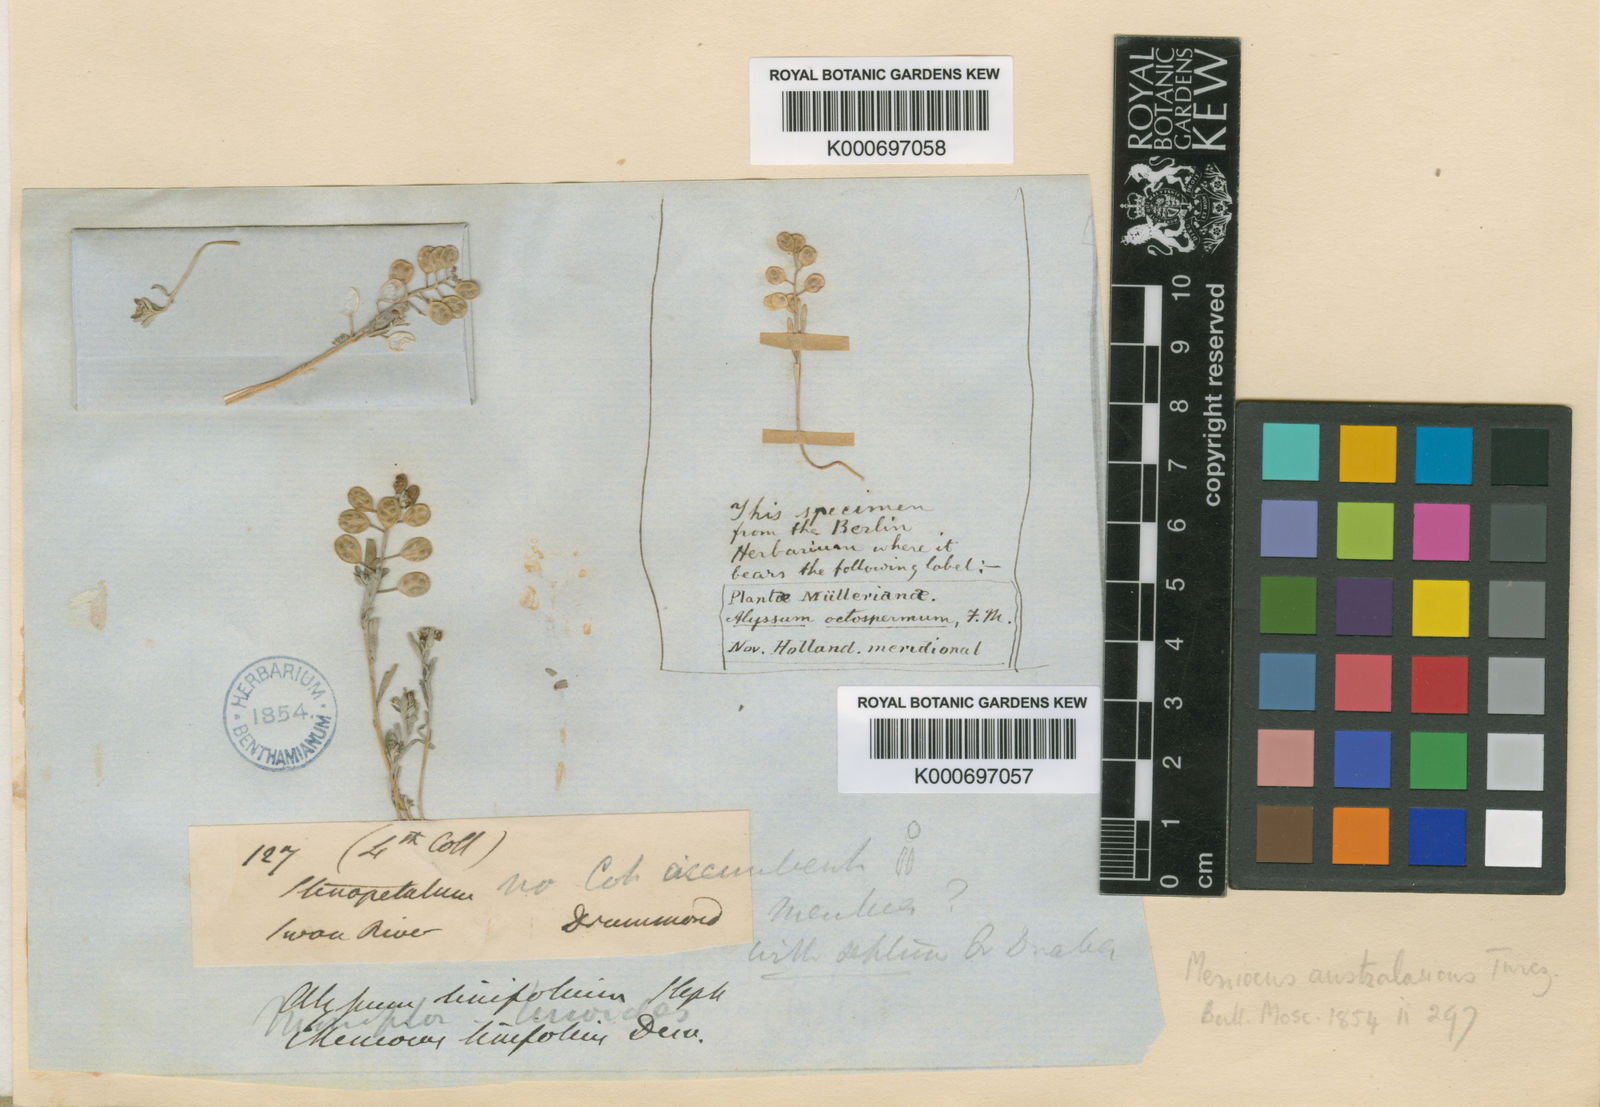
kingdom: Plantae
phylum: Tracheophyta
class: Magnoliopsida
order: Brassicales
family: Brassicaceae
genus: Meniocus
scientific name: Meniocus linifolius
